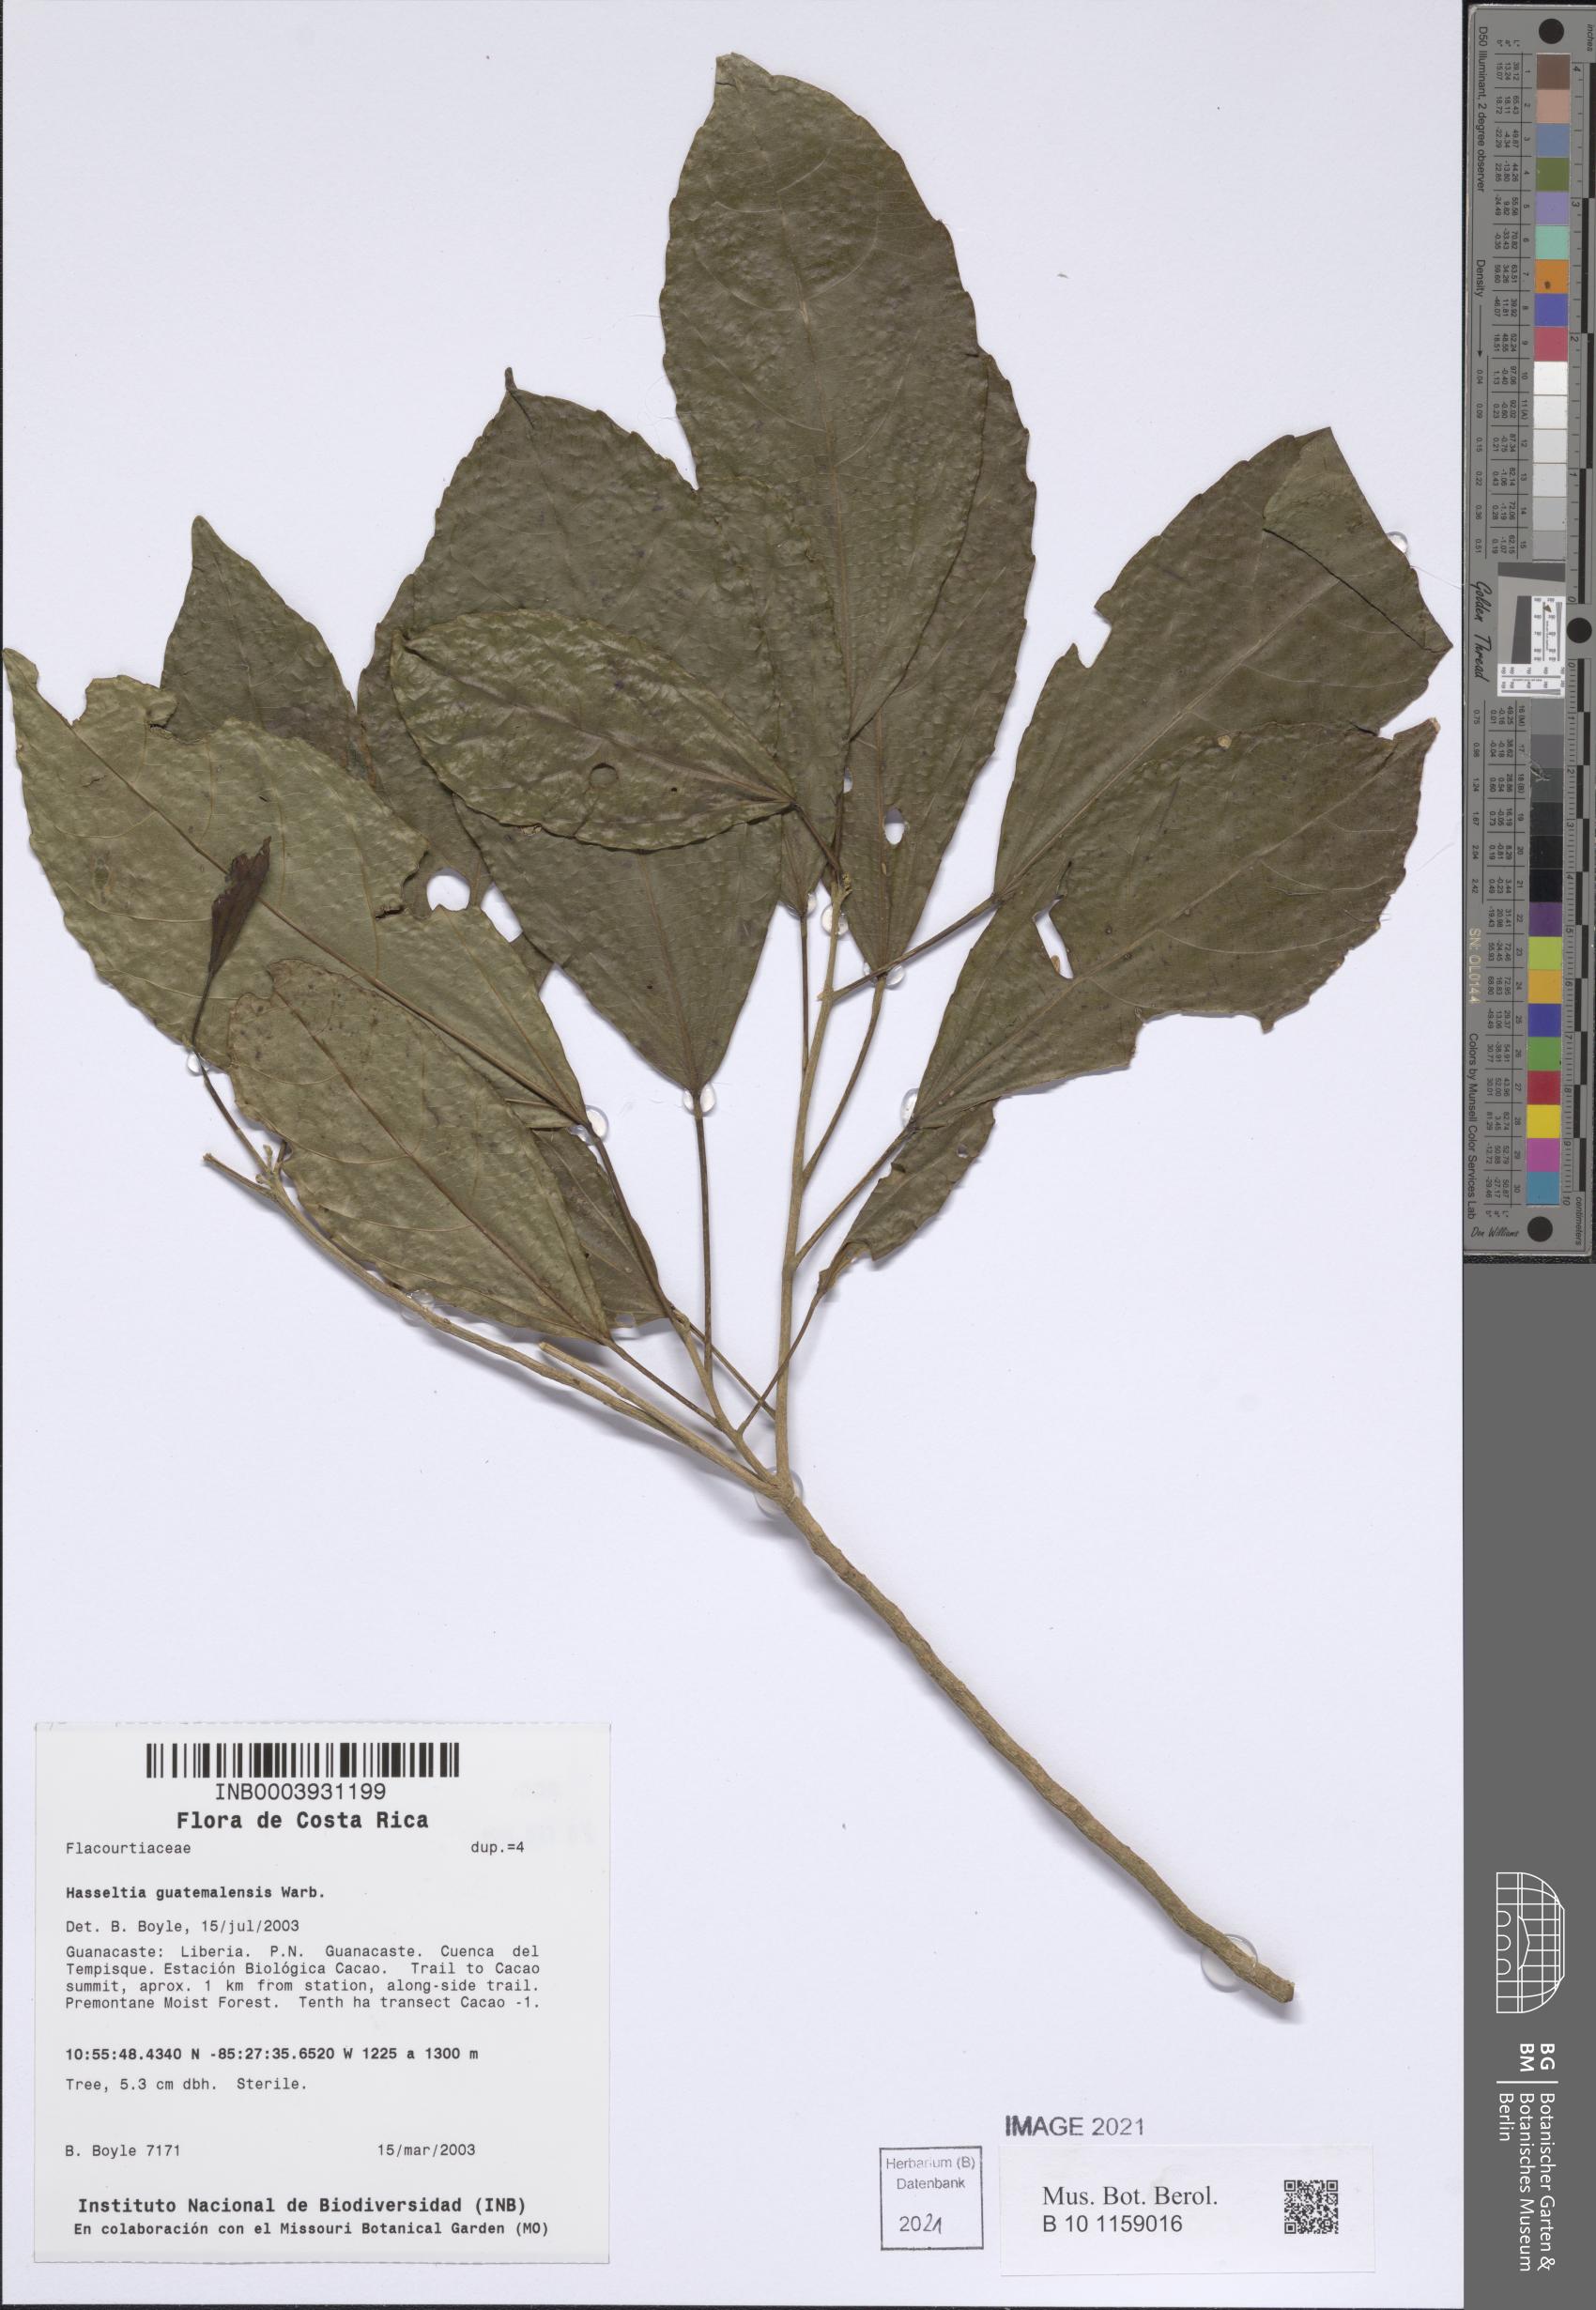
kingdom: Plantae
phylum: Tracheophyta
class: Magnoliopsida
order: Malpighiales
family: Salicaceae
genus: Hasseltia
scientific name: Hasseltia guatemalensis
